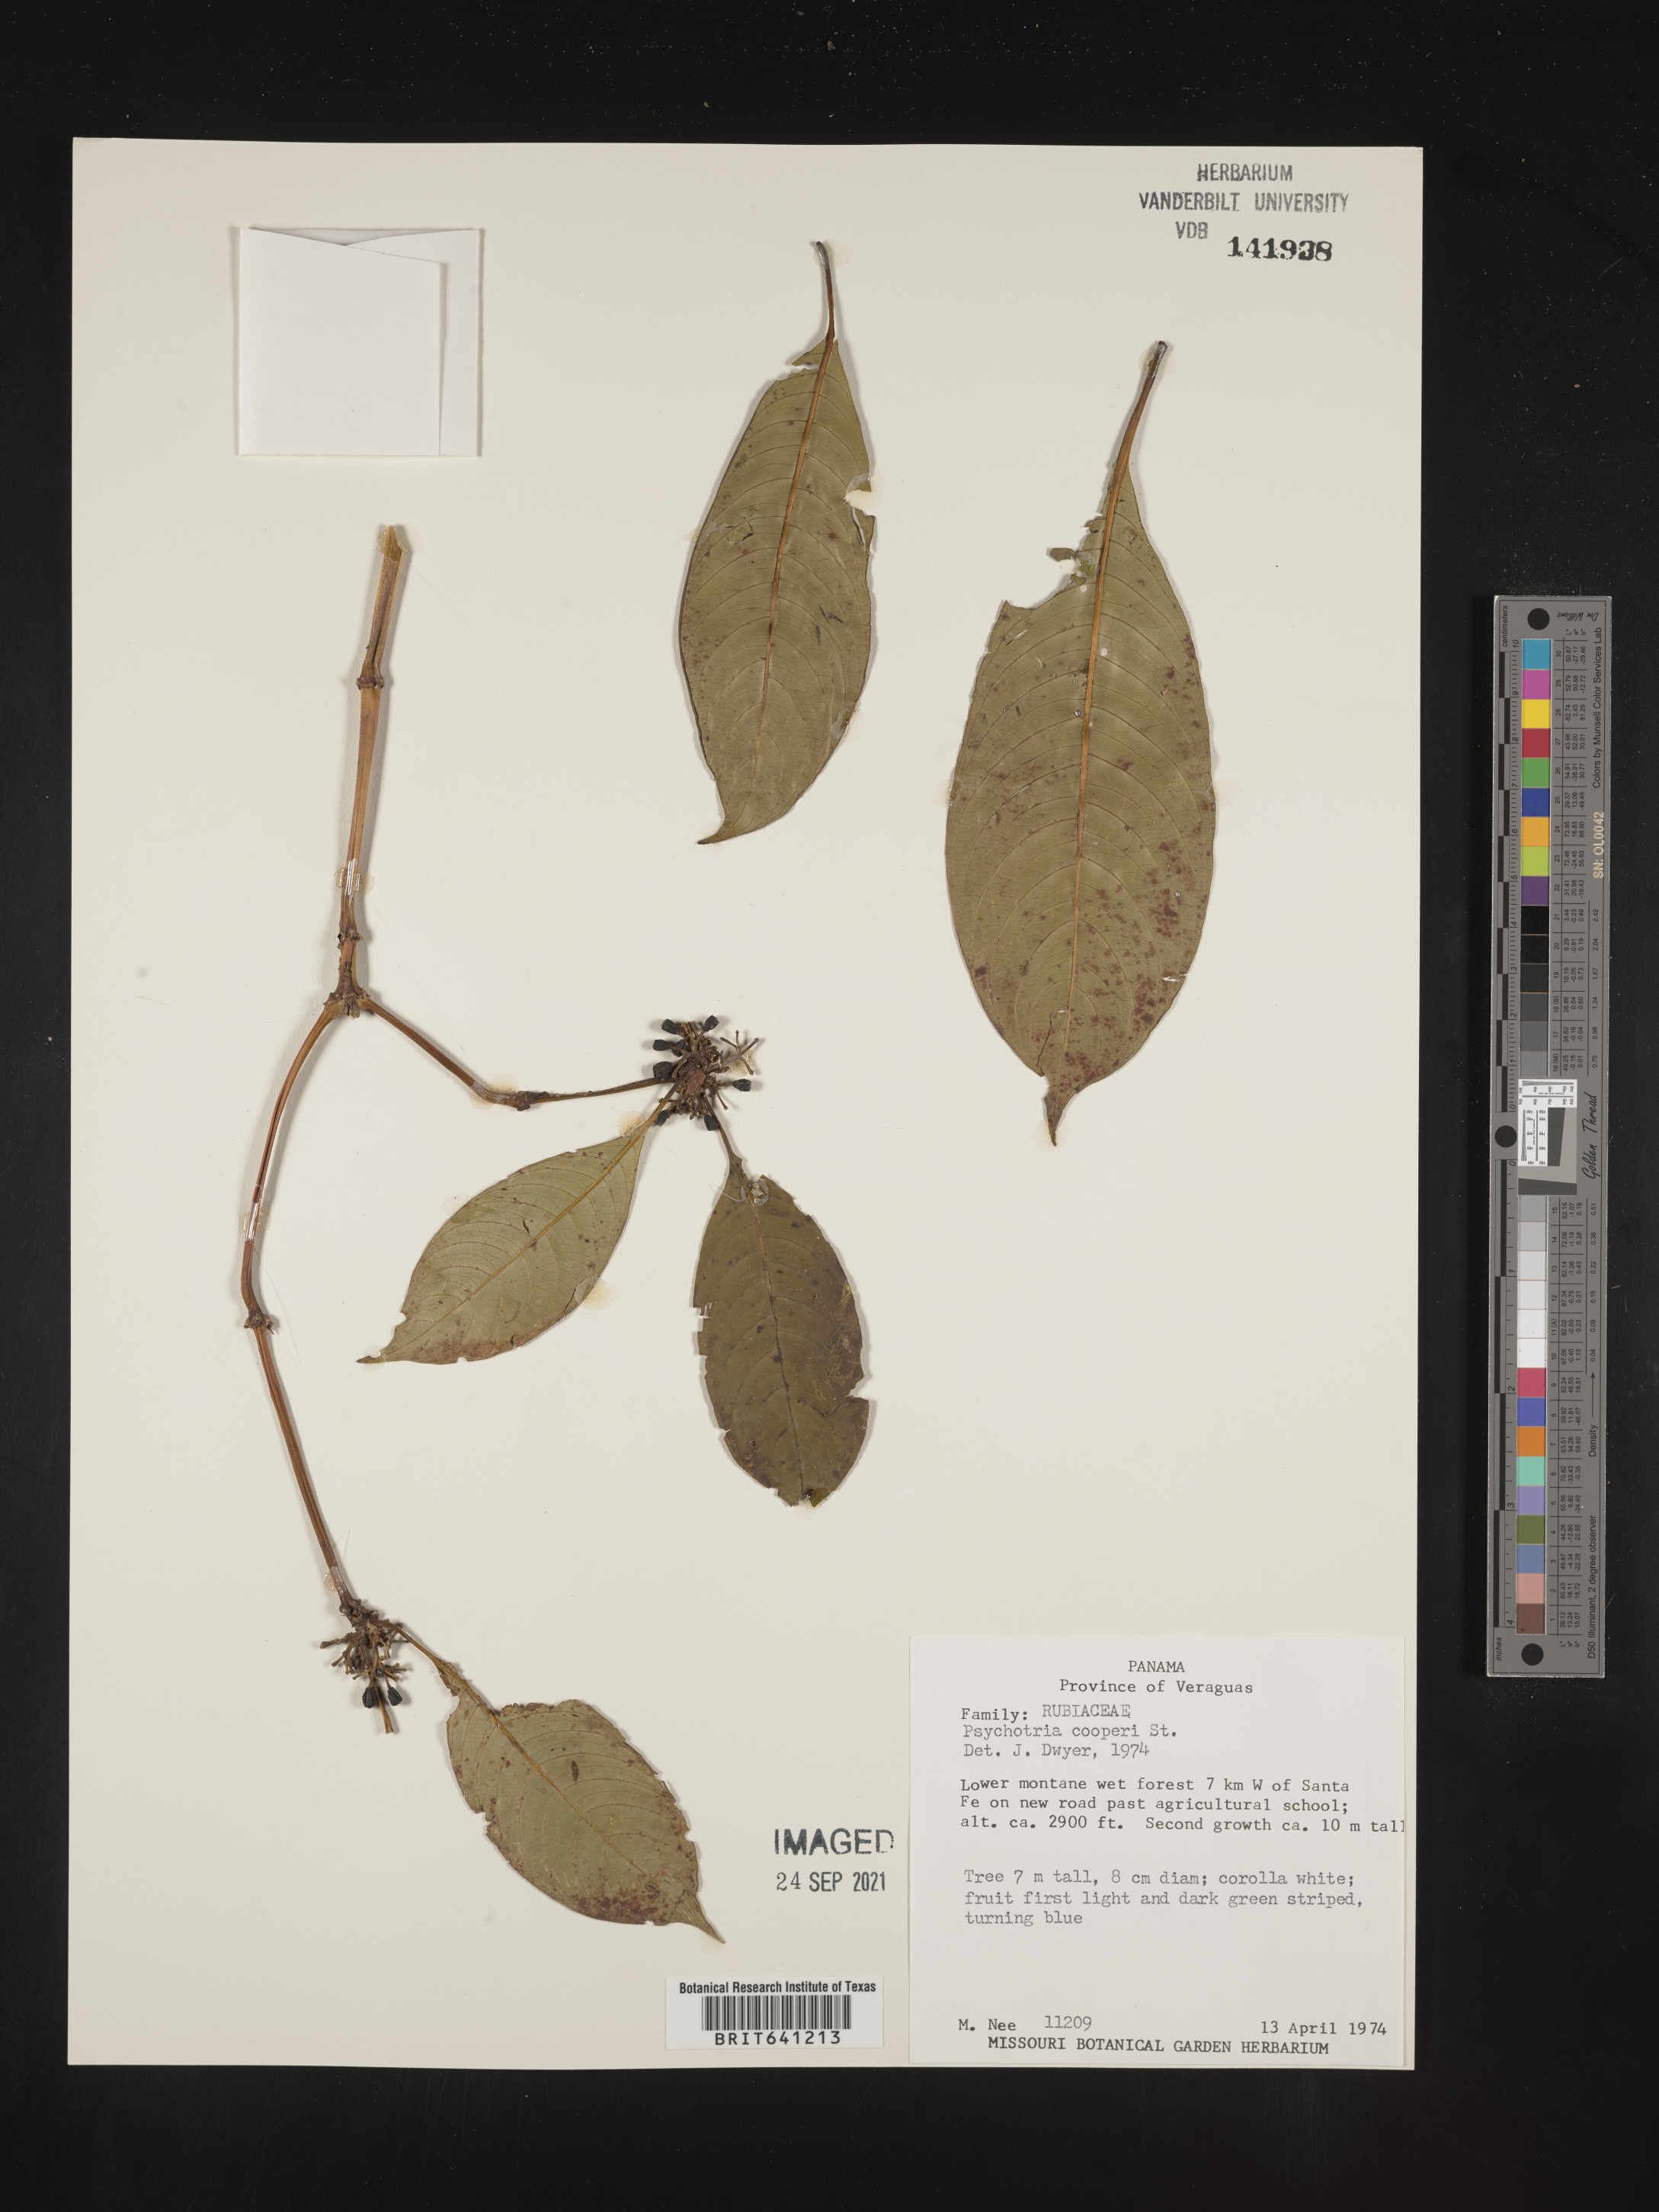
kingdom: Plantae
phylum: Tracheophyta
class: Magnoliopsida
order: Gentianales
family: Rubiaceae
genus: Psychotria
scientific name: Psychotria
